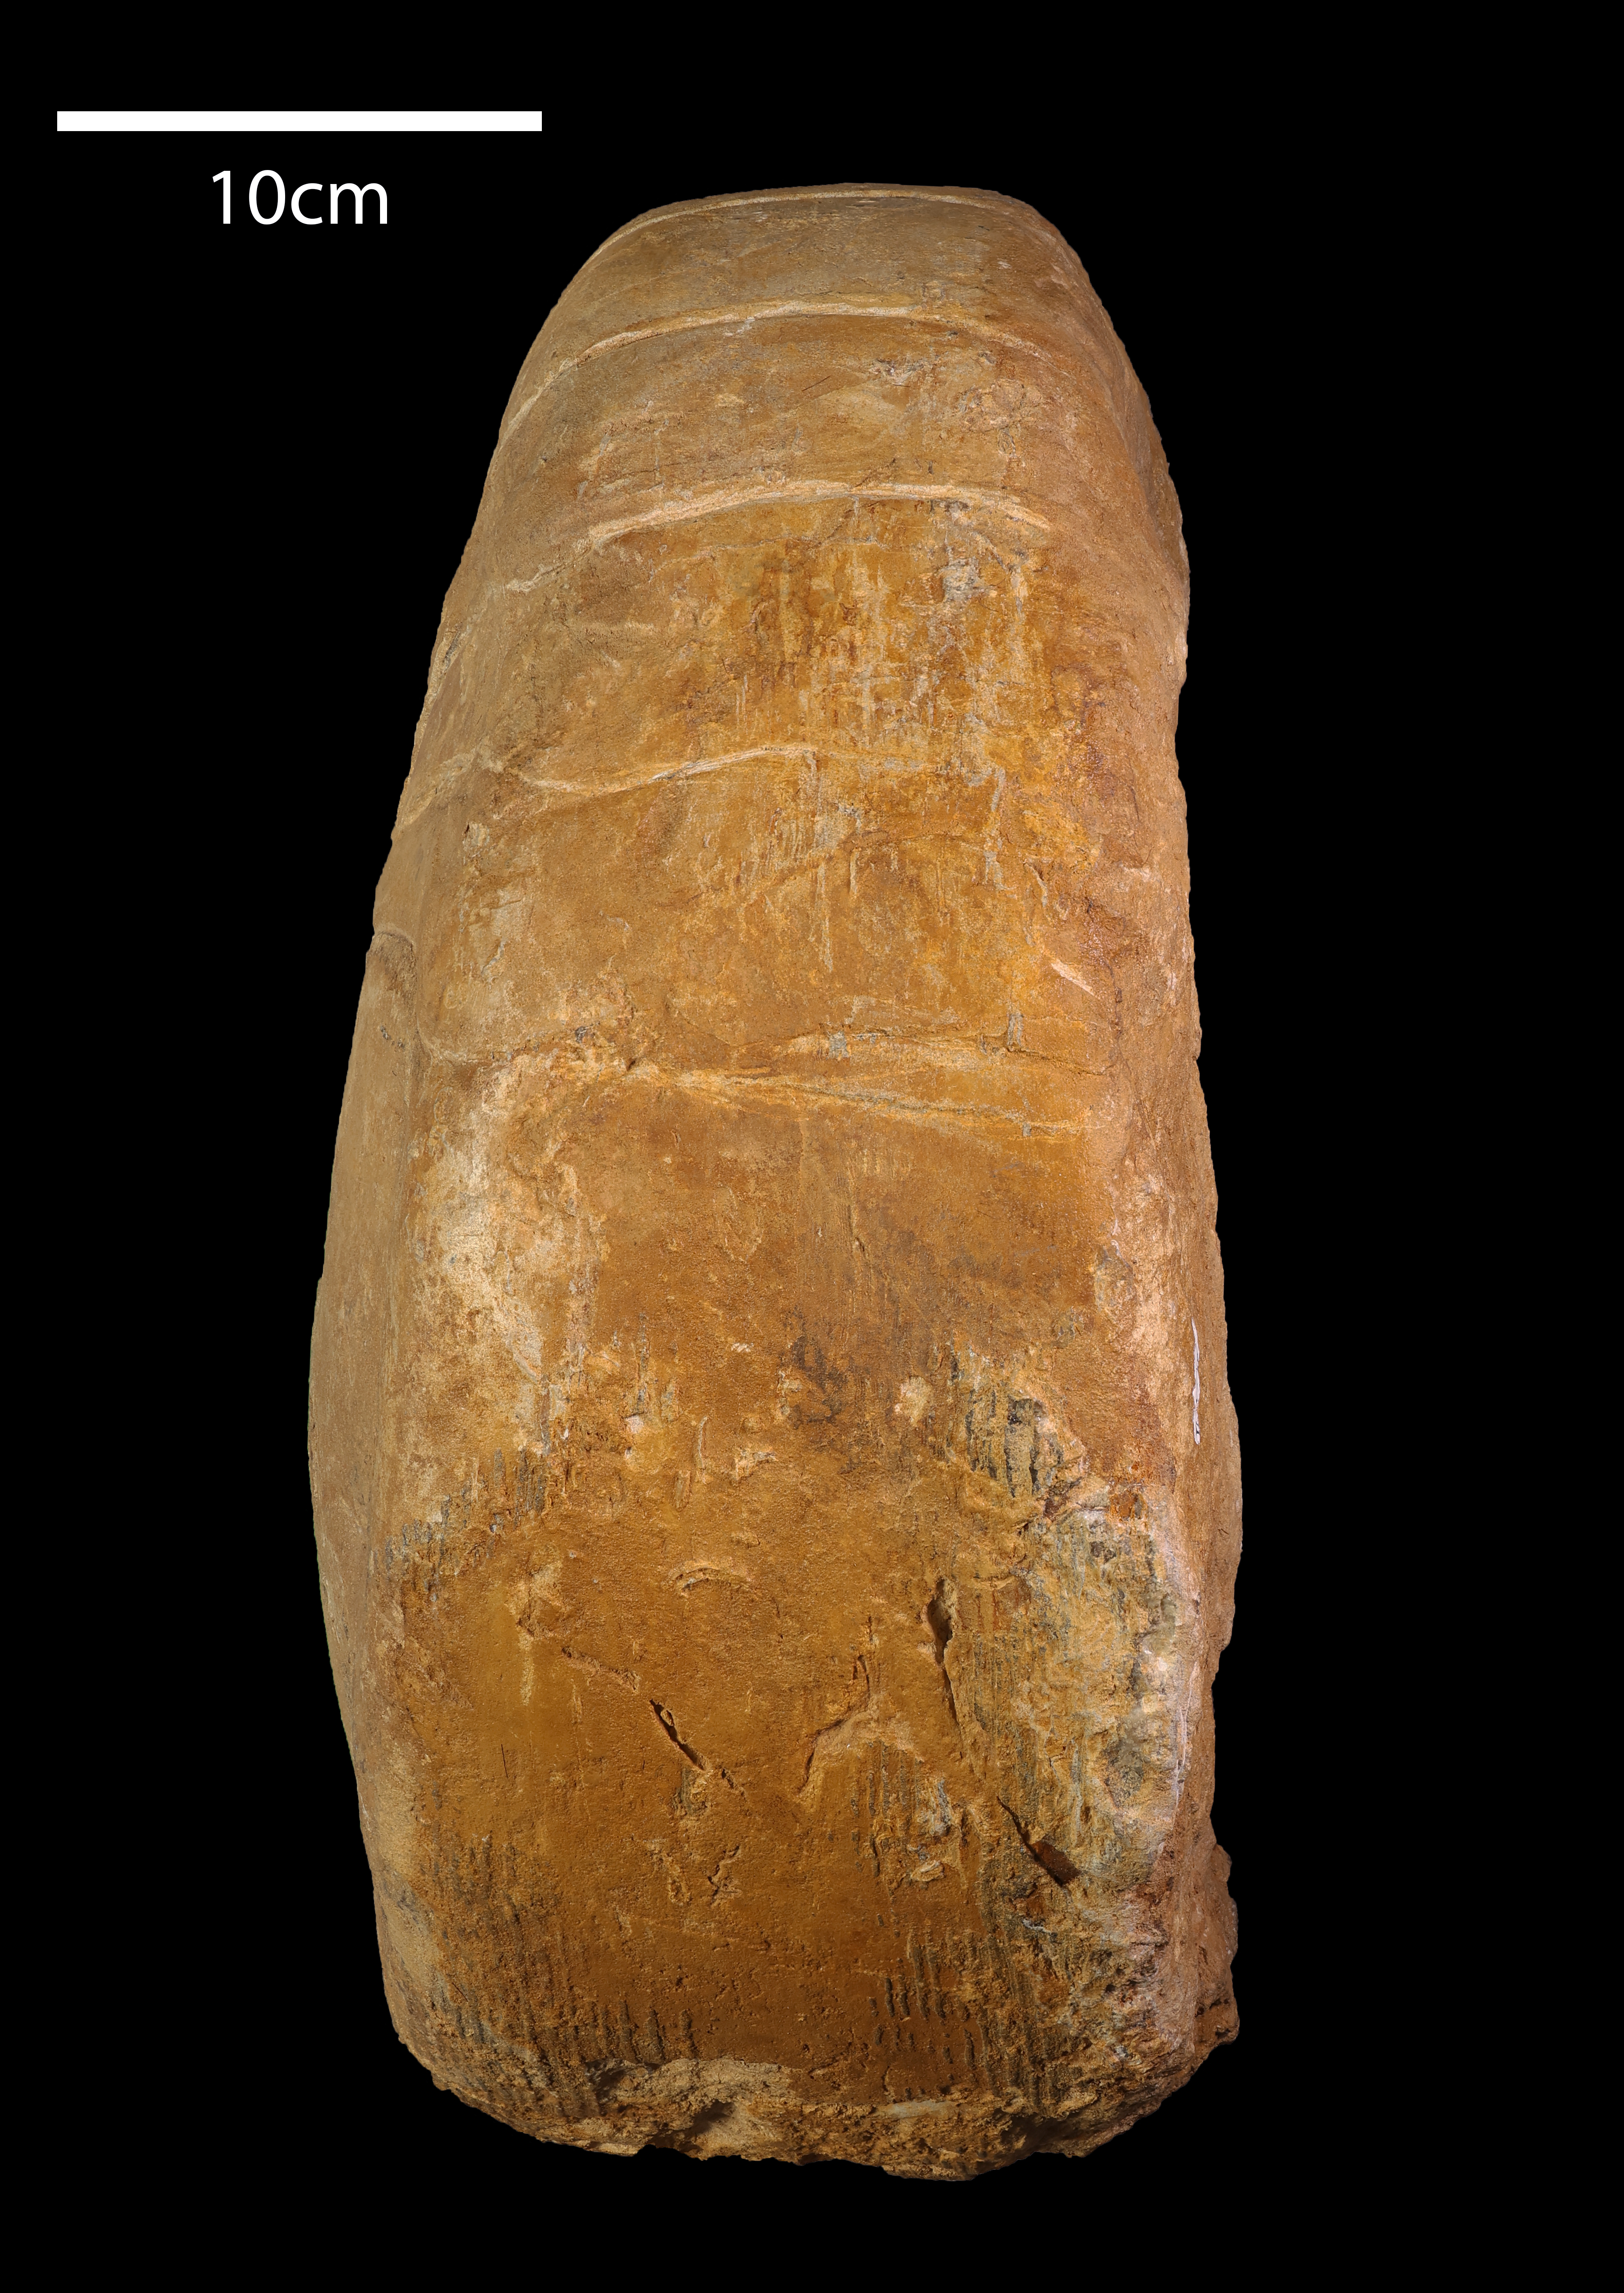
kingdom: Animalia
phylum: Mollusca
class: Cephalopoda
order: Nautilida
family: Nautilidae
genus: Cenoceras
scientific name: Cenoceras
